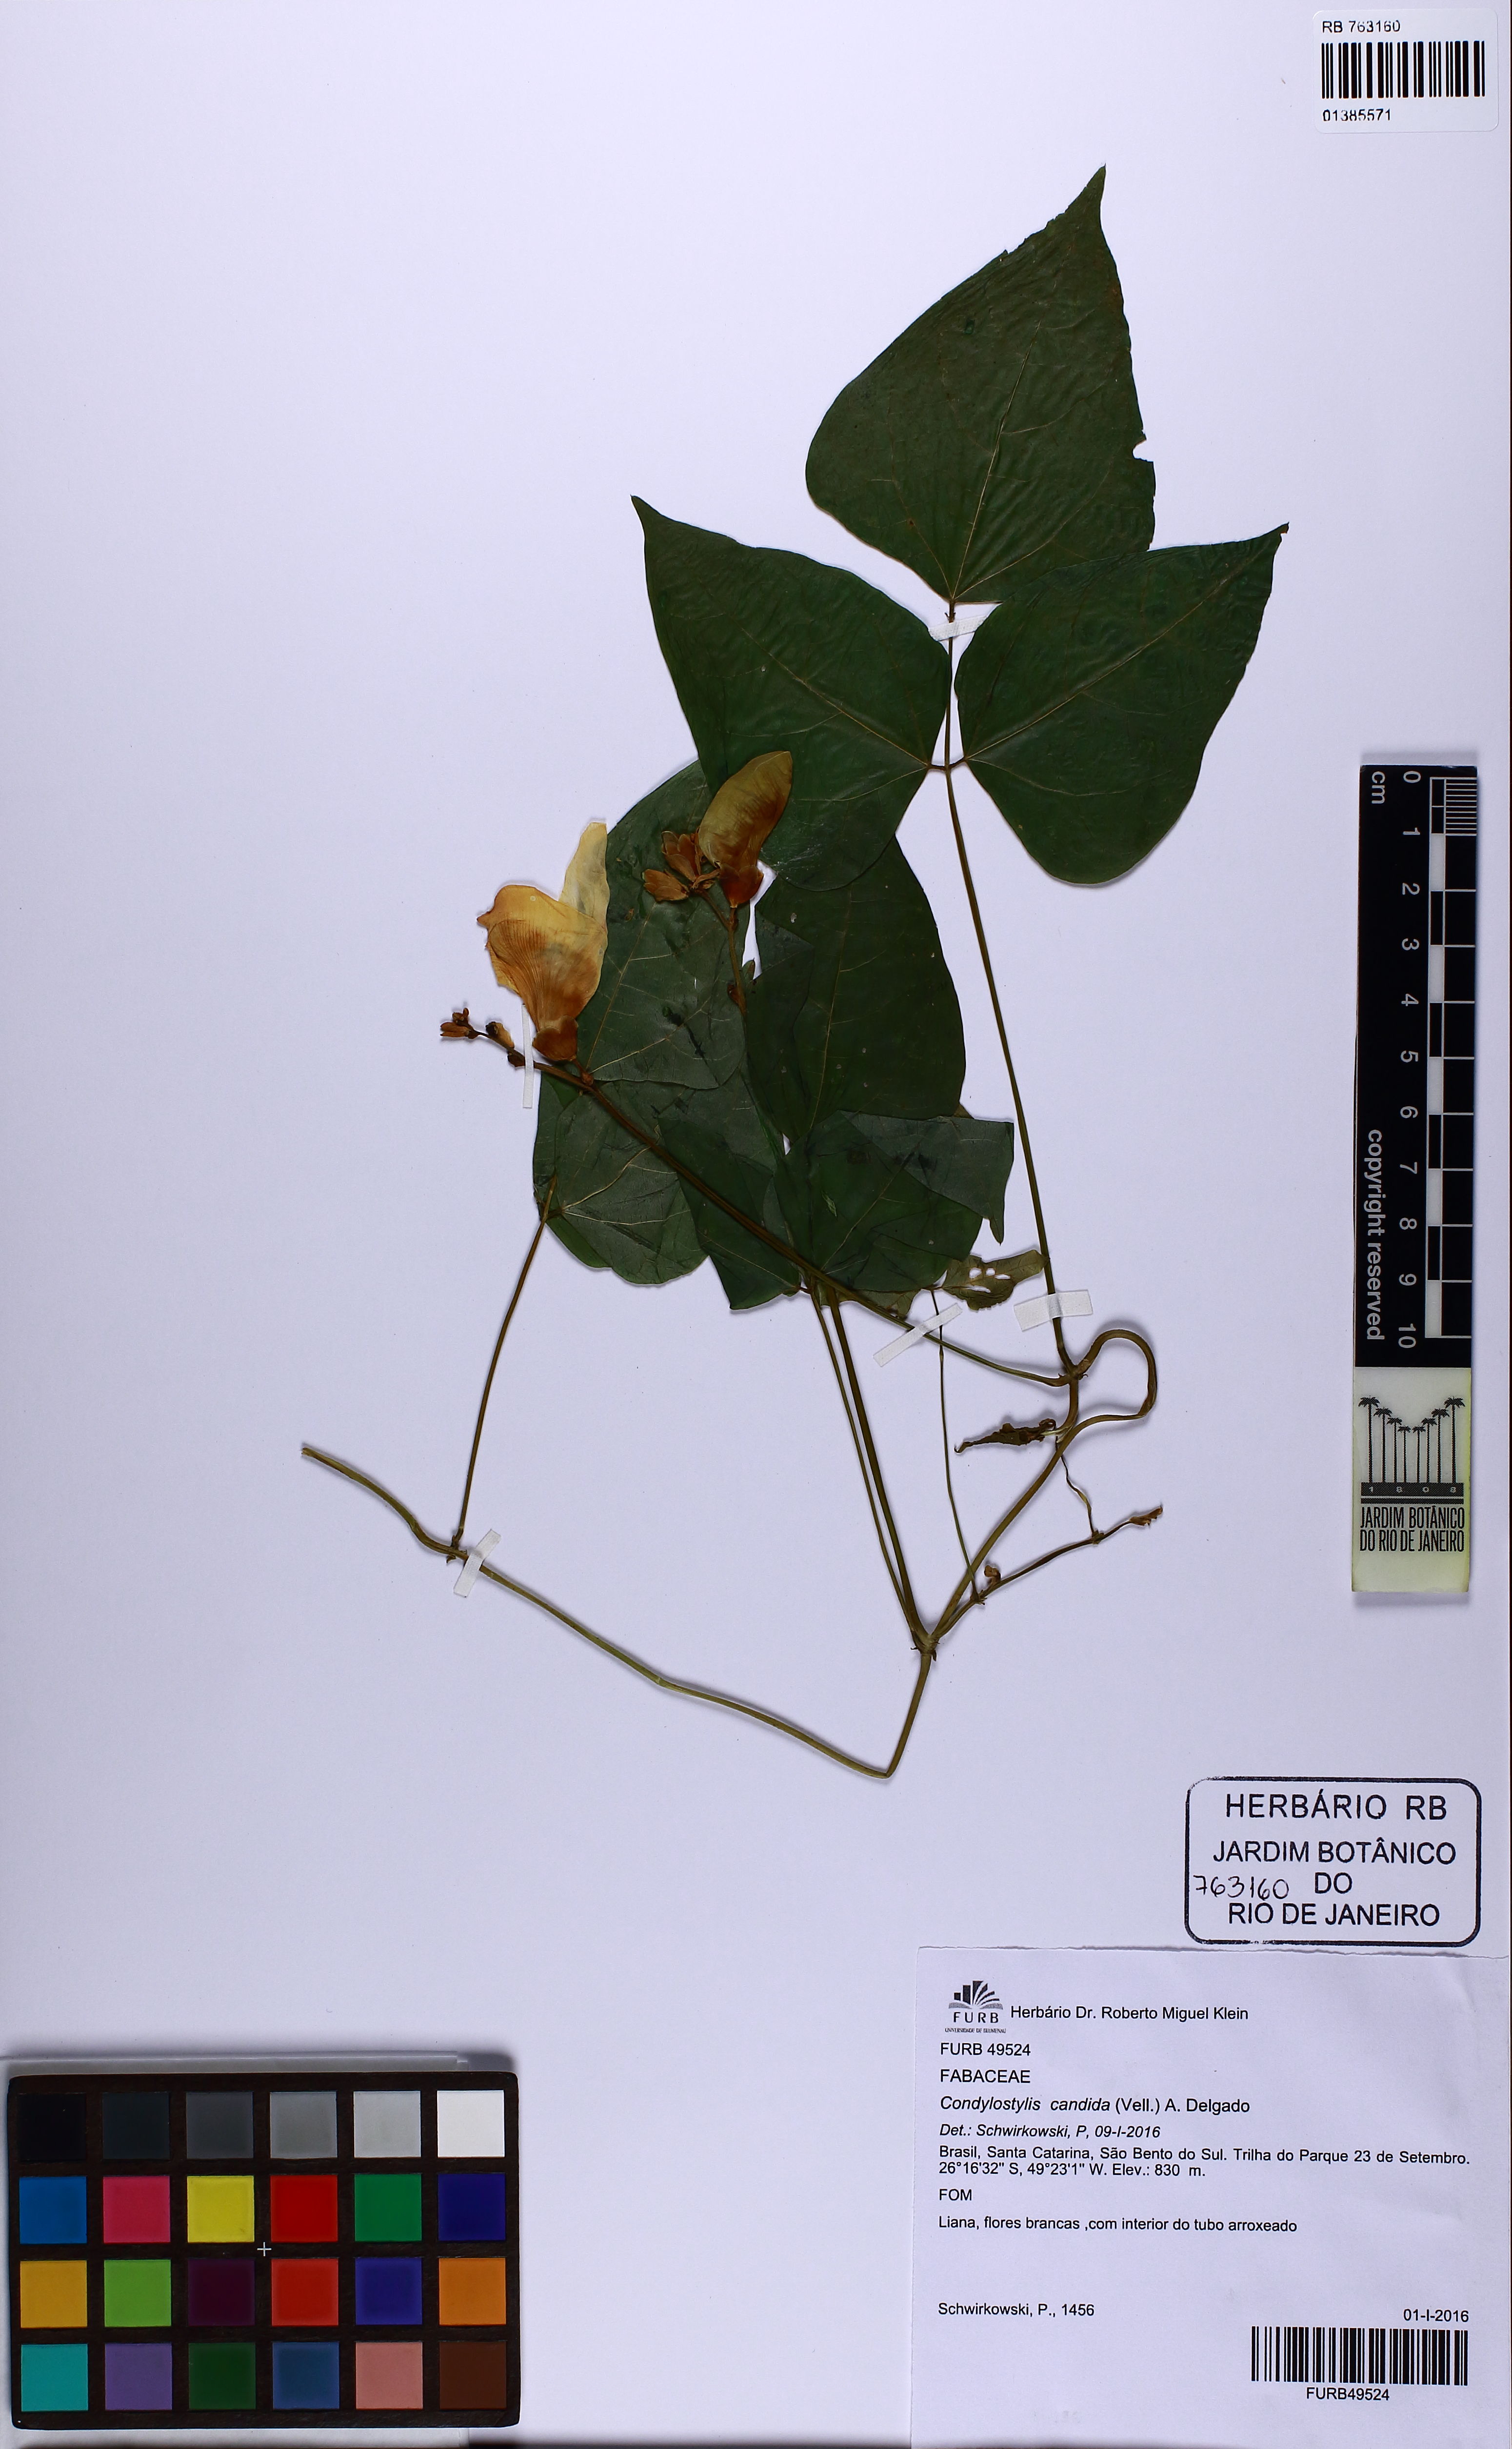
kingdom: Plantae
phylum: Tracheophyta
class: Magnoliopsida
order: Fabales
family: Fabaceae
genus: Condylostylis
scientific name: Condylostylis candida
